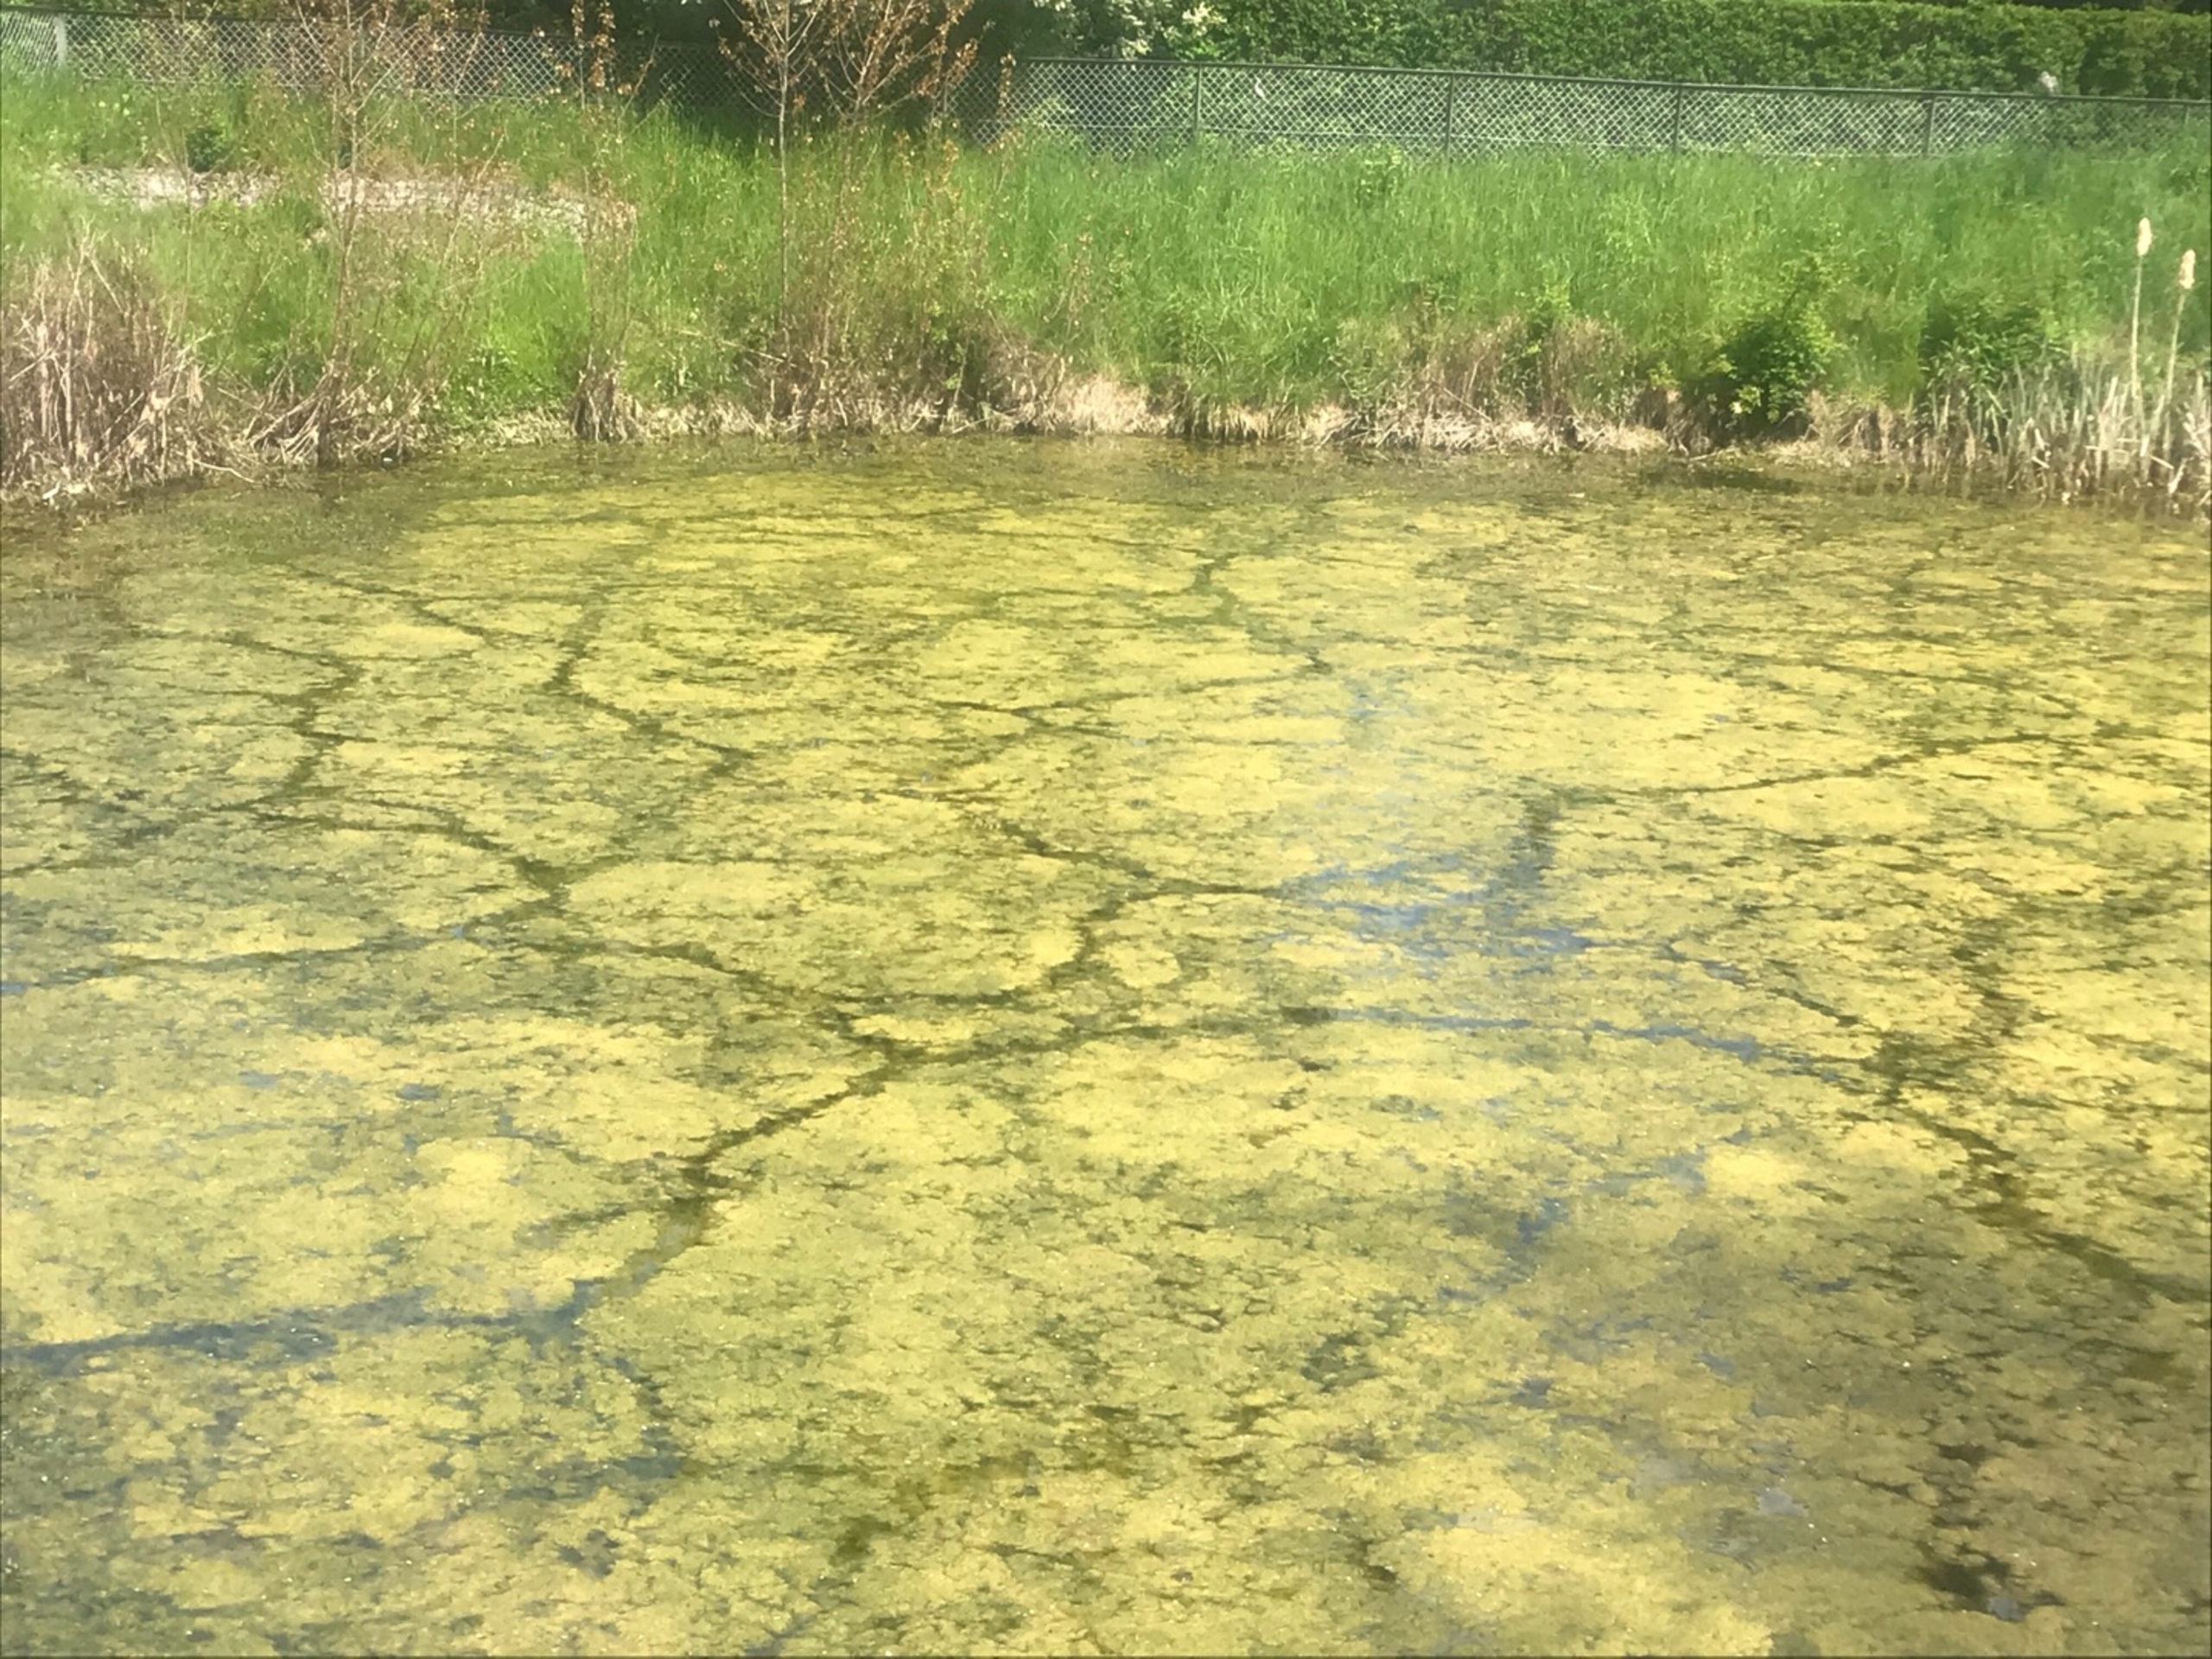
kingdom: Animalia
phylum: Chordata
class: Aves
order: Gruiformes
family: Rallidae
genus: Gallinula
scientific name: Gallinula chloropus
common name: Grønbenet rørhøne
